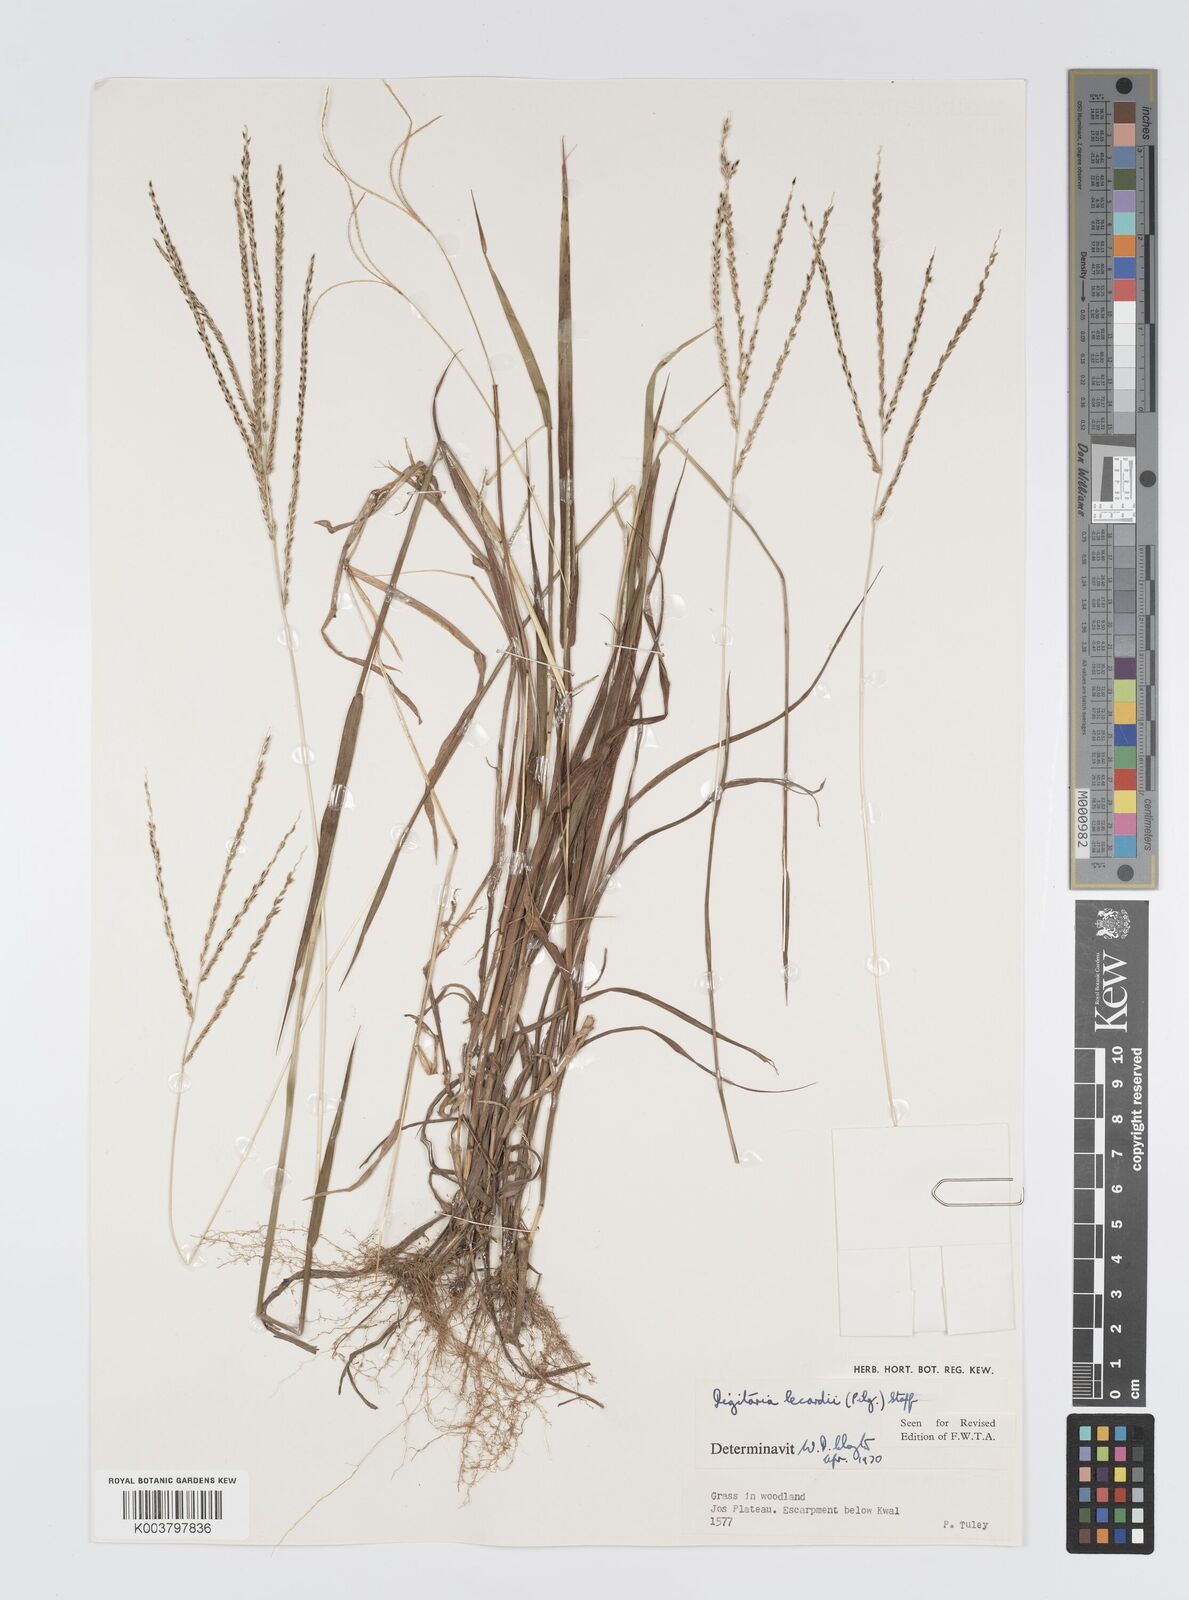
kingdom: Plantae
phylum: Tracheophyta
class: Liliopsida
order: Poales
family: Poaceae
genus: Digitaria
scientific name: Digitaria argillacea
